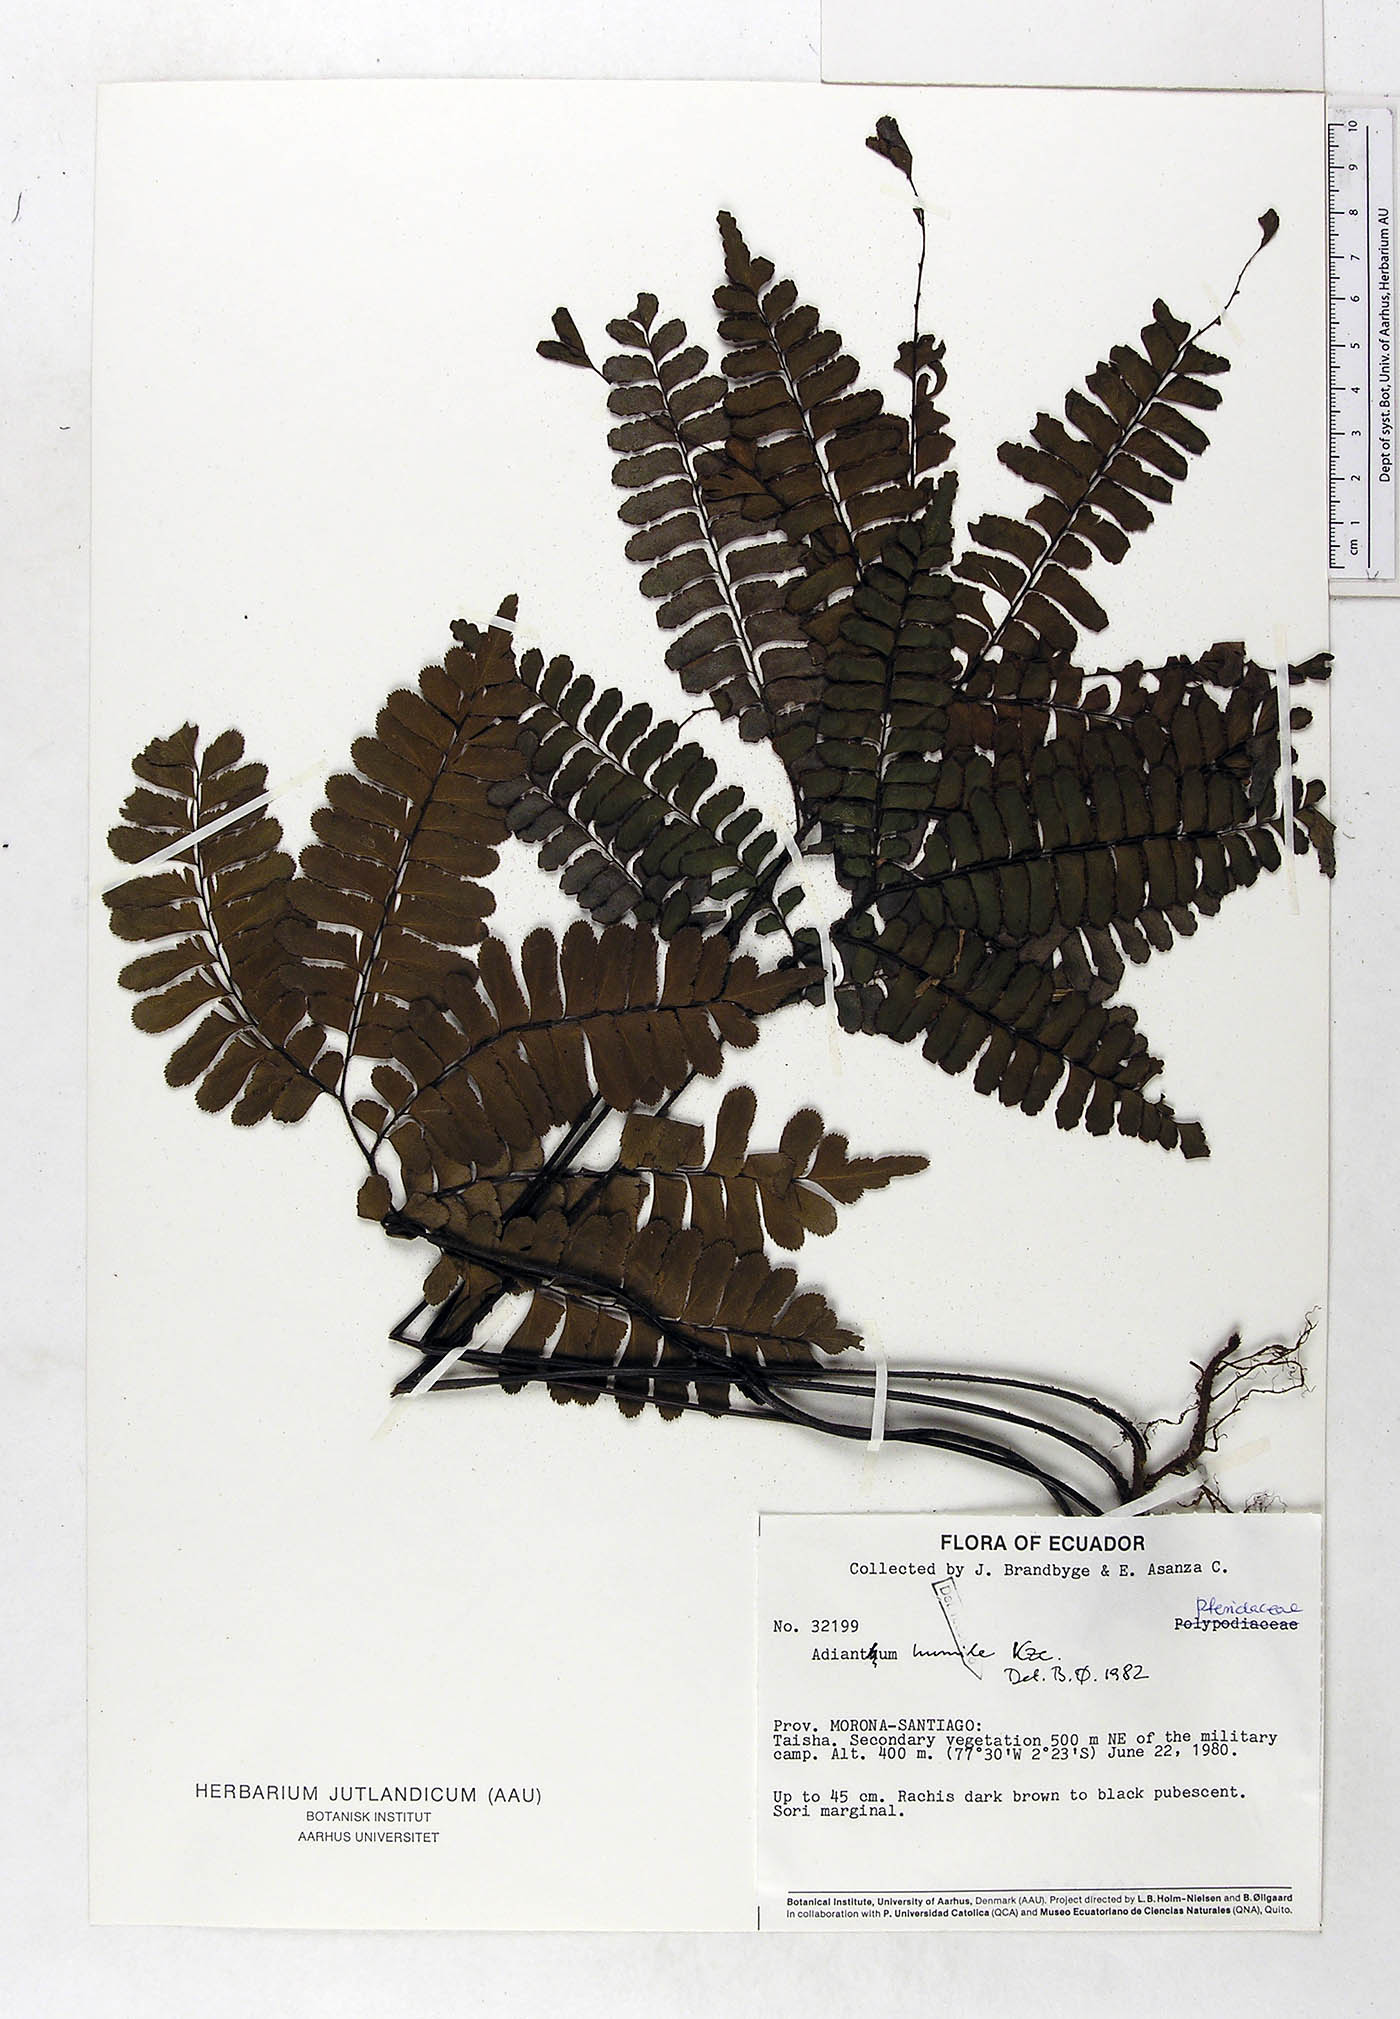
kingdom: Plantae
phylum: Tracheophyta
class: Polypodiopsida
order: Polypodiales
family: Pteridaceae
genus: Adiantum
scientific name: Adiantum humile
